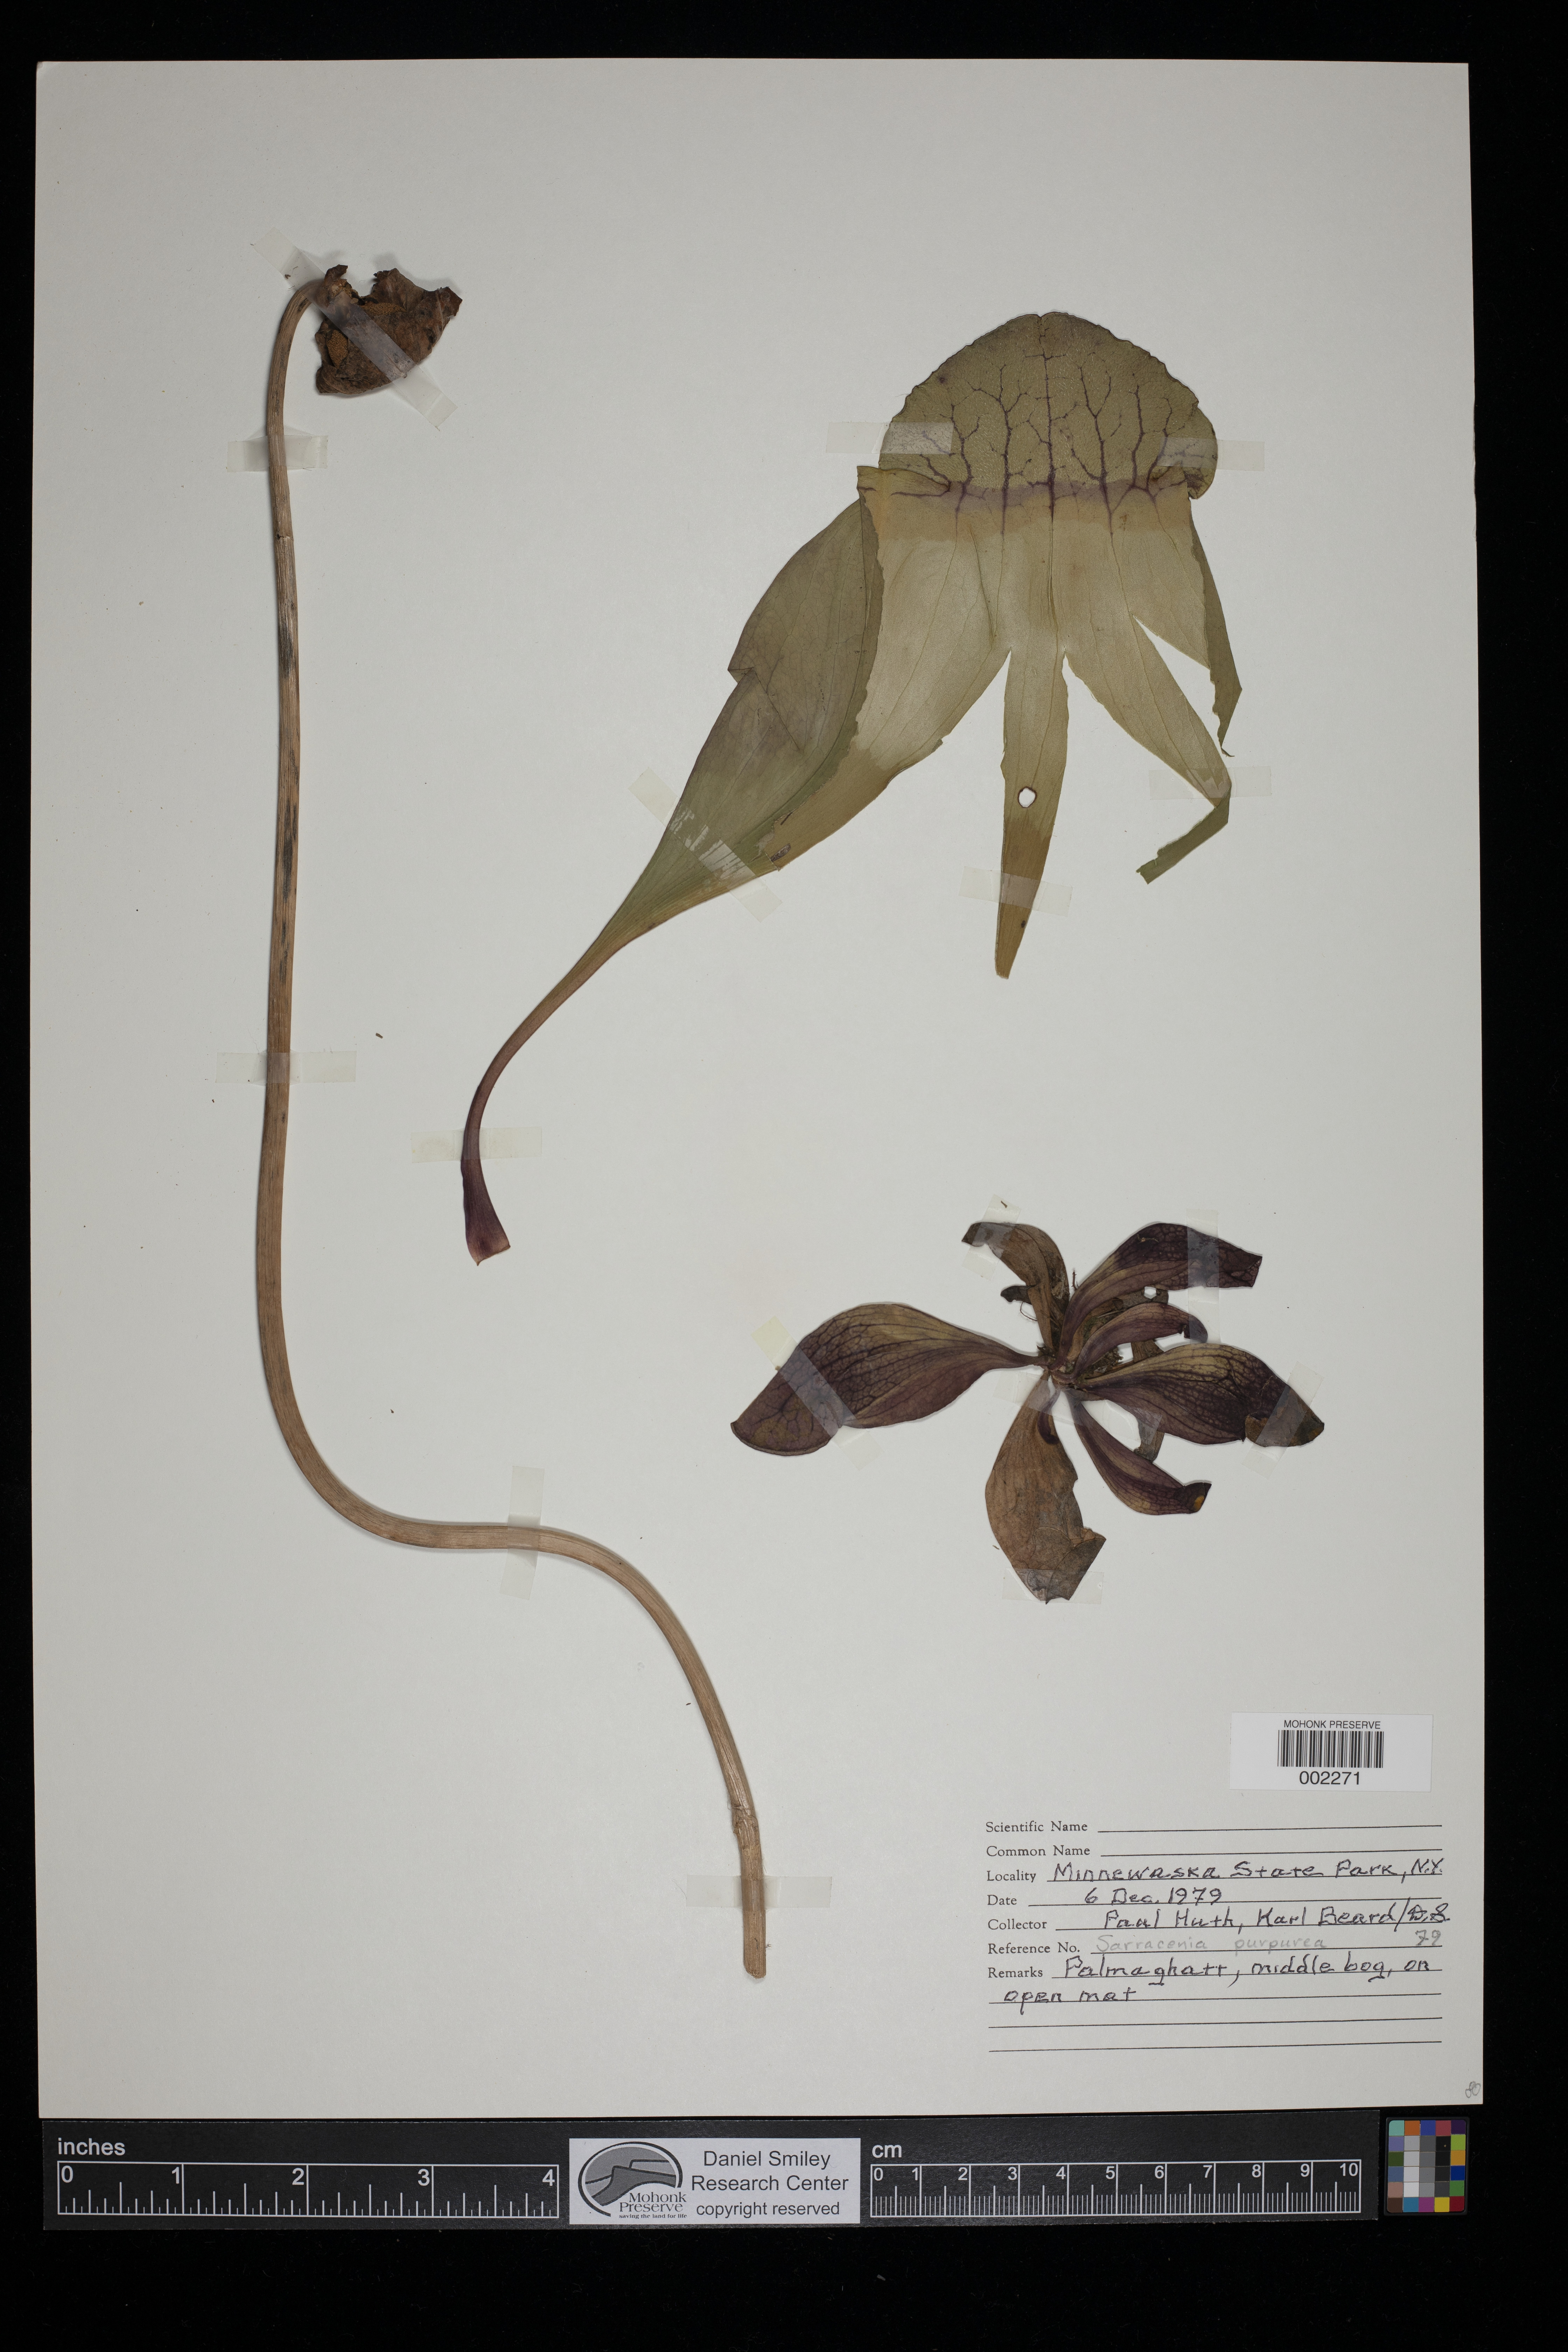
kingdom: Plantae
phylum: Tracheophyta
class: Magnoliopsida
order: Ericales
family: Sarraceniaceae
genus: Sarracenia
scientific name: Sarracenia purpurea
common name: Pitcherplant
